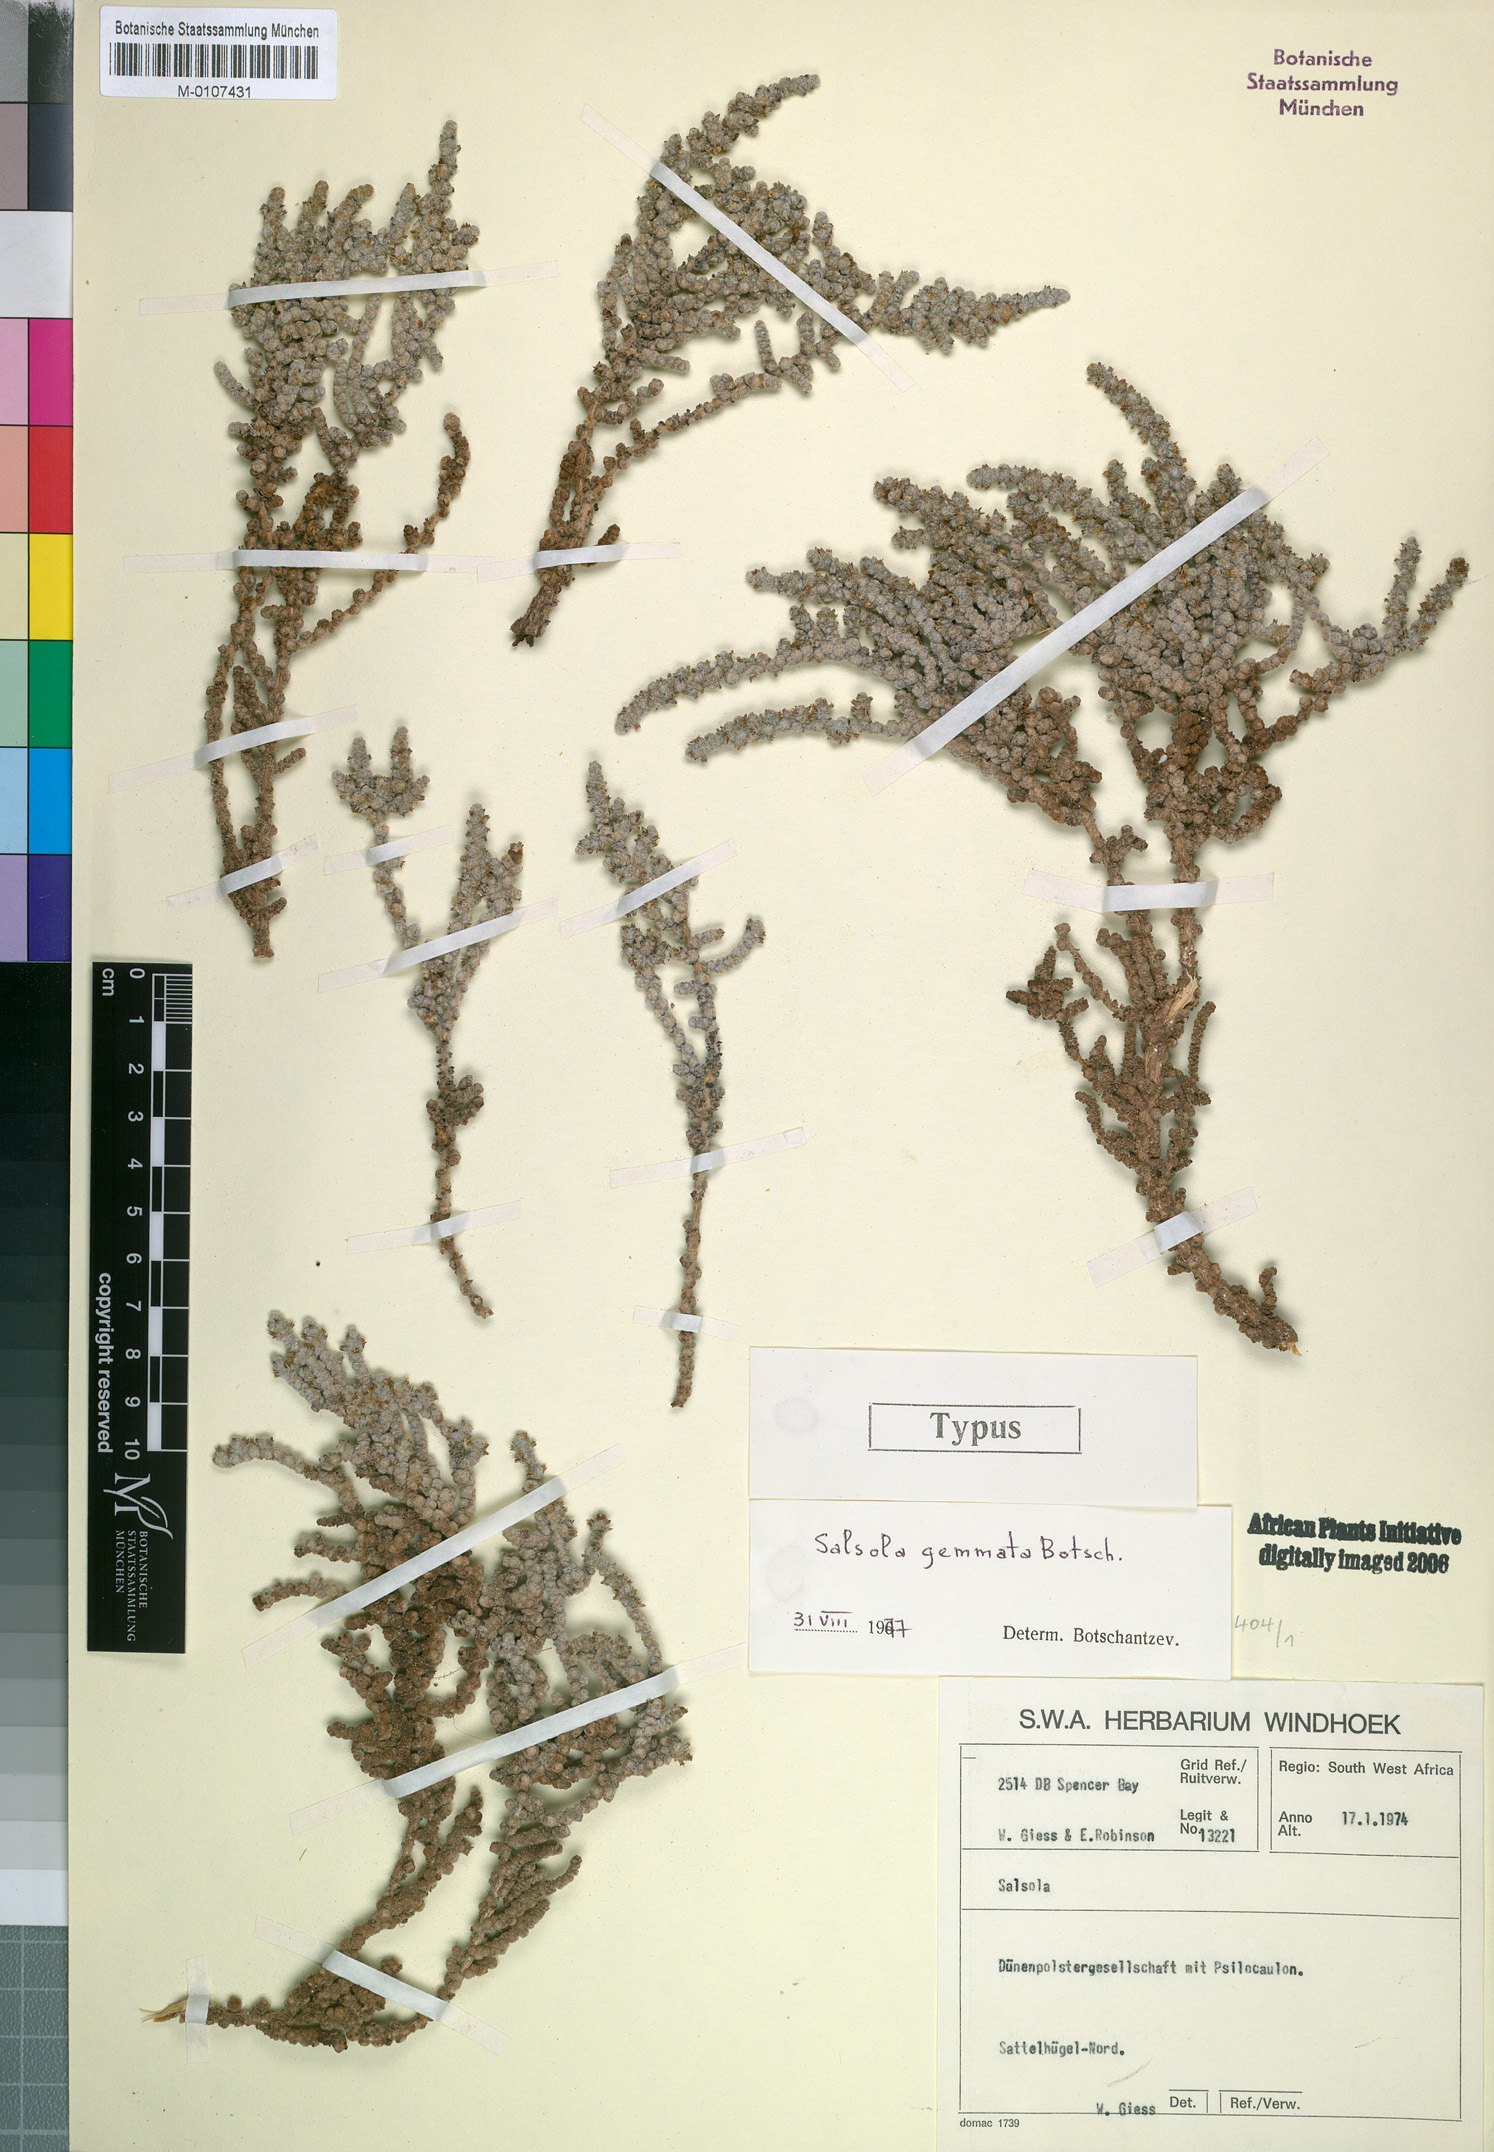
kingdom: Plantae
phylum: Tracheophyta
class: Magnoliopsida
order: Caryophyllales
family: Amaranthaceae
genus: Caroxylon
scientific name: Caroxylon gemmatum
